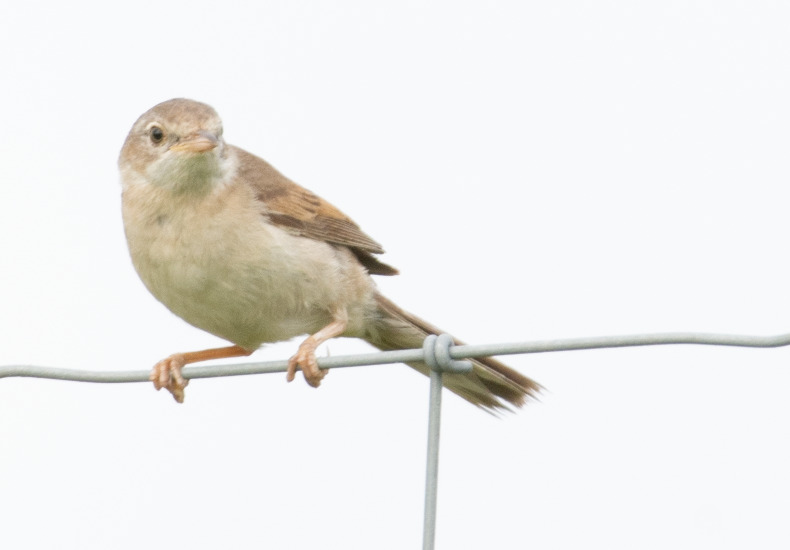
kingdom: Animalia
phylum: Chordata
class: Aves
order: Passeriformes
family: Sylviidae
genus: Sylvia
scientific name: Sylvia communis
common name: Tornsanger
